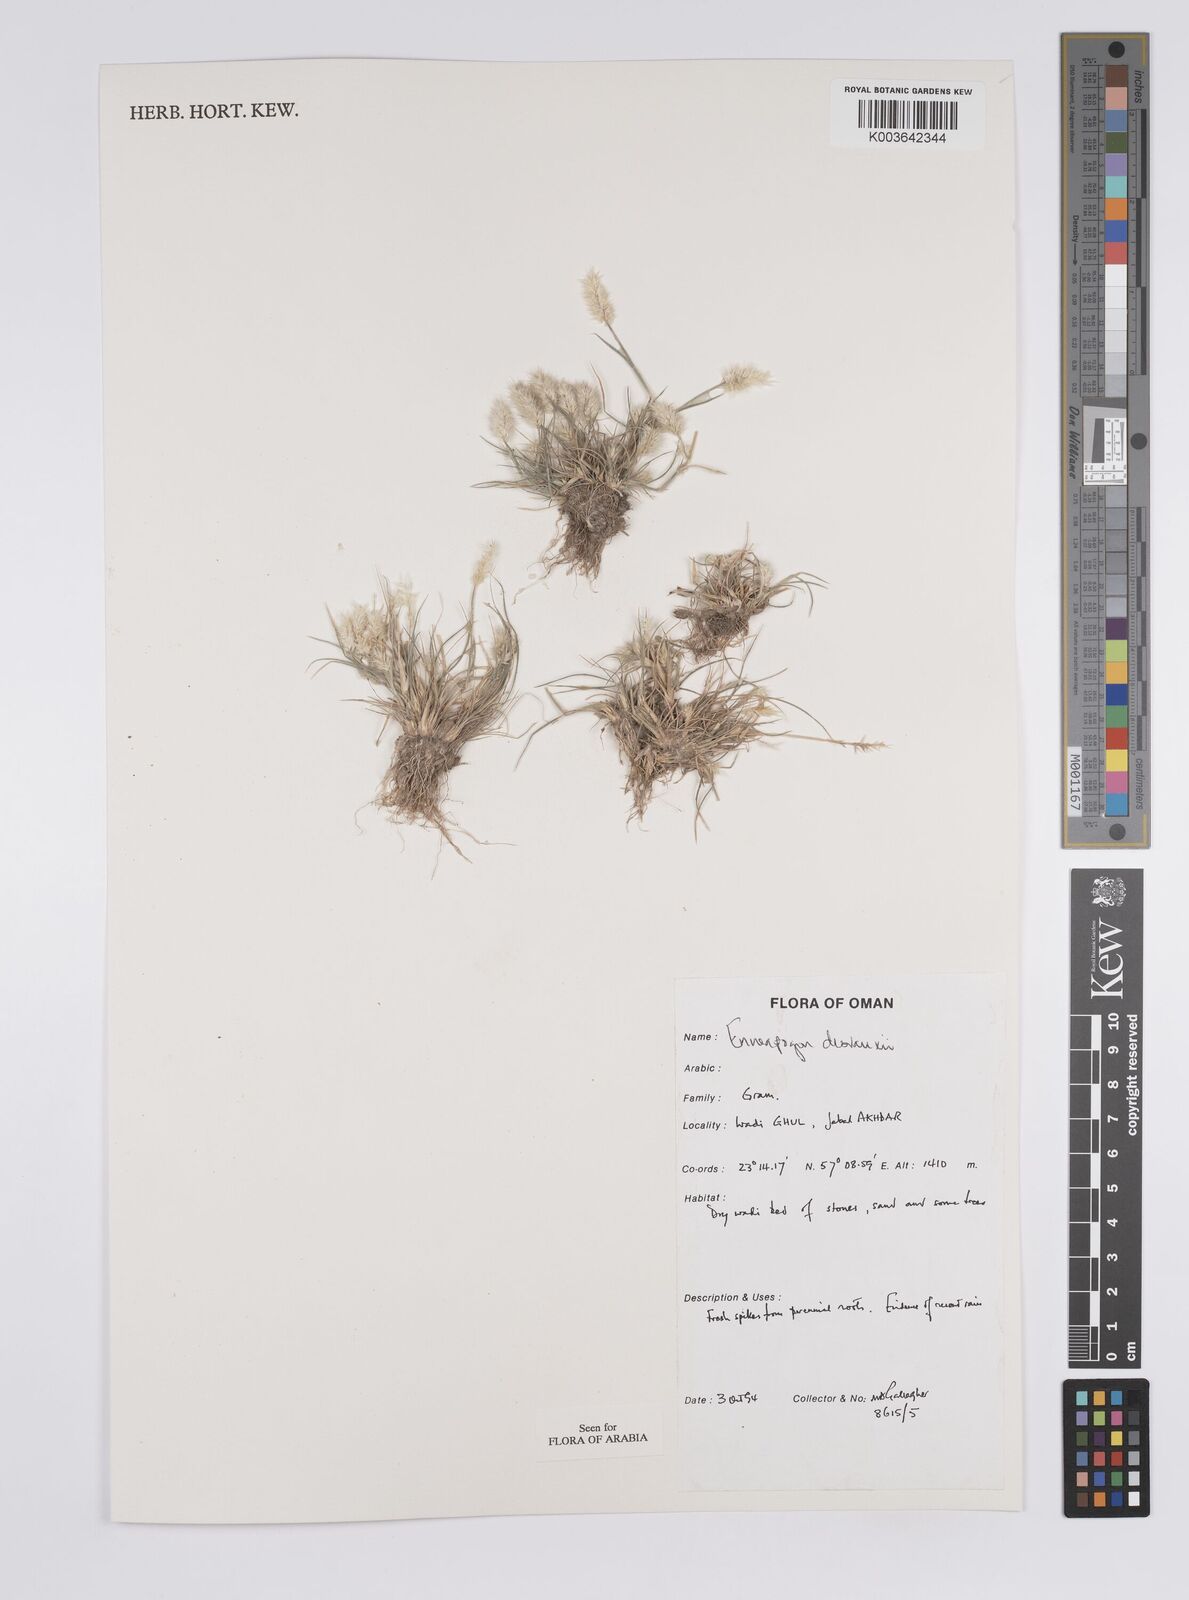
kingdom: Plantae
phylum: Tracheophyta
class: Liliopsida
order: Poales
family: Poaceae
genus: Enneapogon
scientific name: Enneapogon desvauxii
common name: Feather pappus grass
